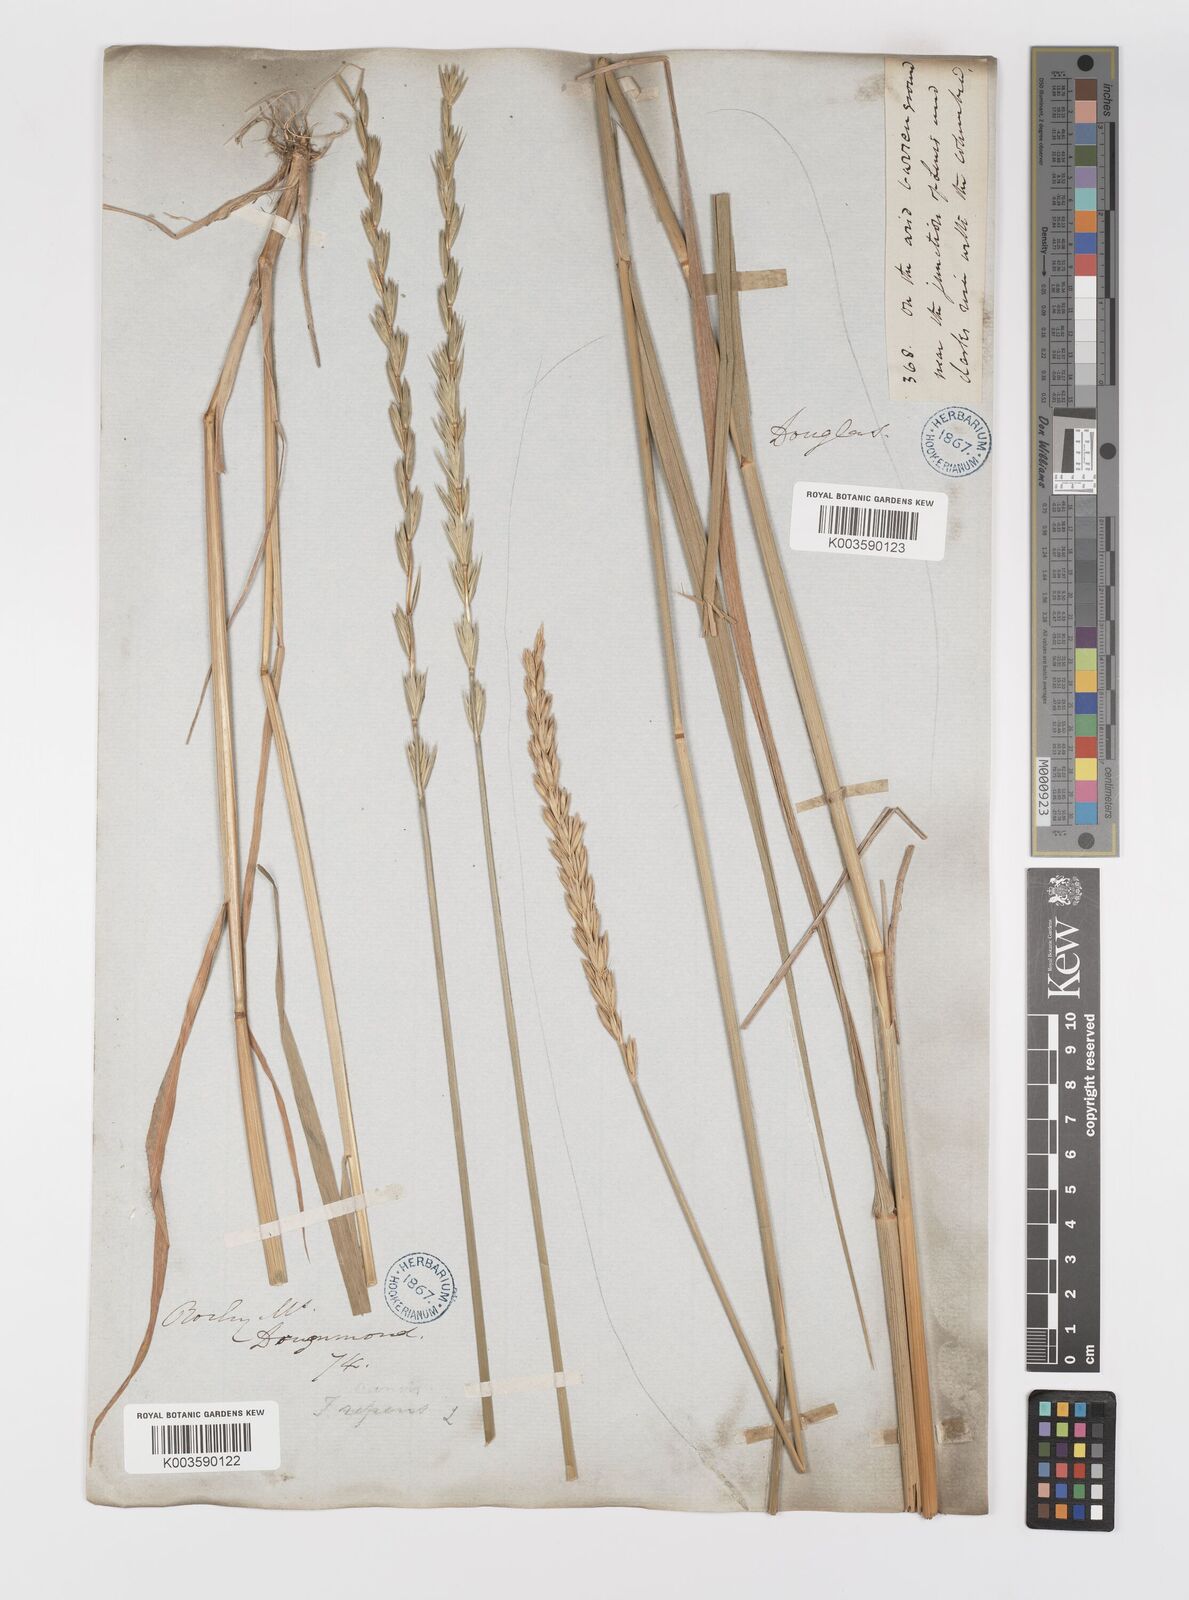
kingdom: Plantae
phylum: Tracheophyta
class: Liliopsida
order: Poales
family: Poaceae
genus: Elymus
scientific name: Elymus repens
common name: Quackgrass
